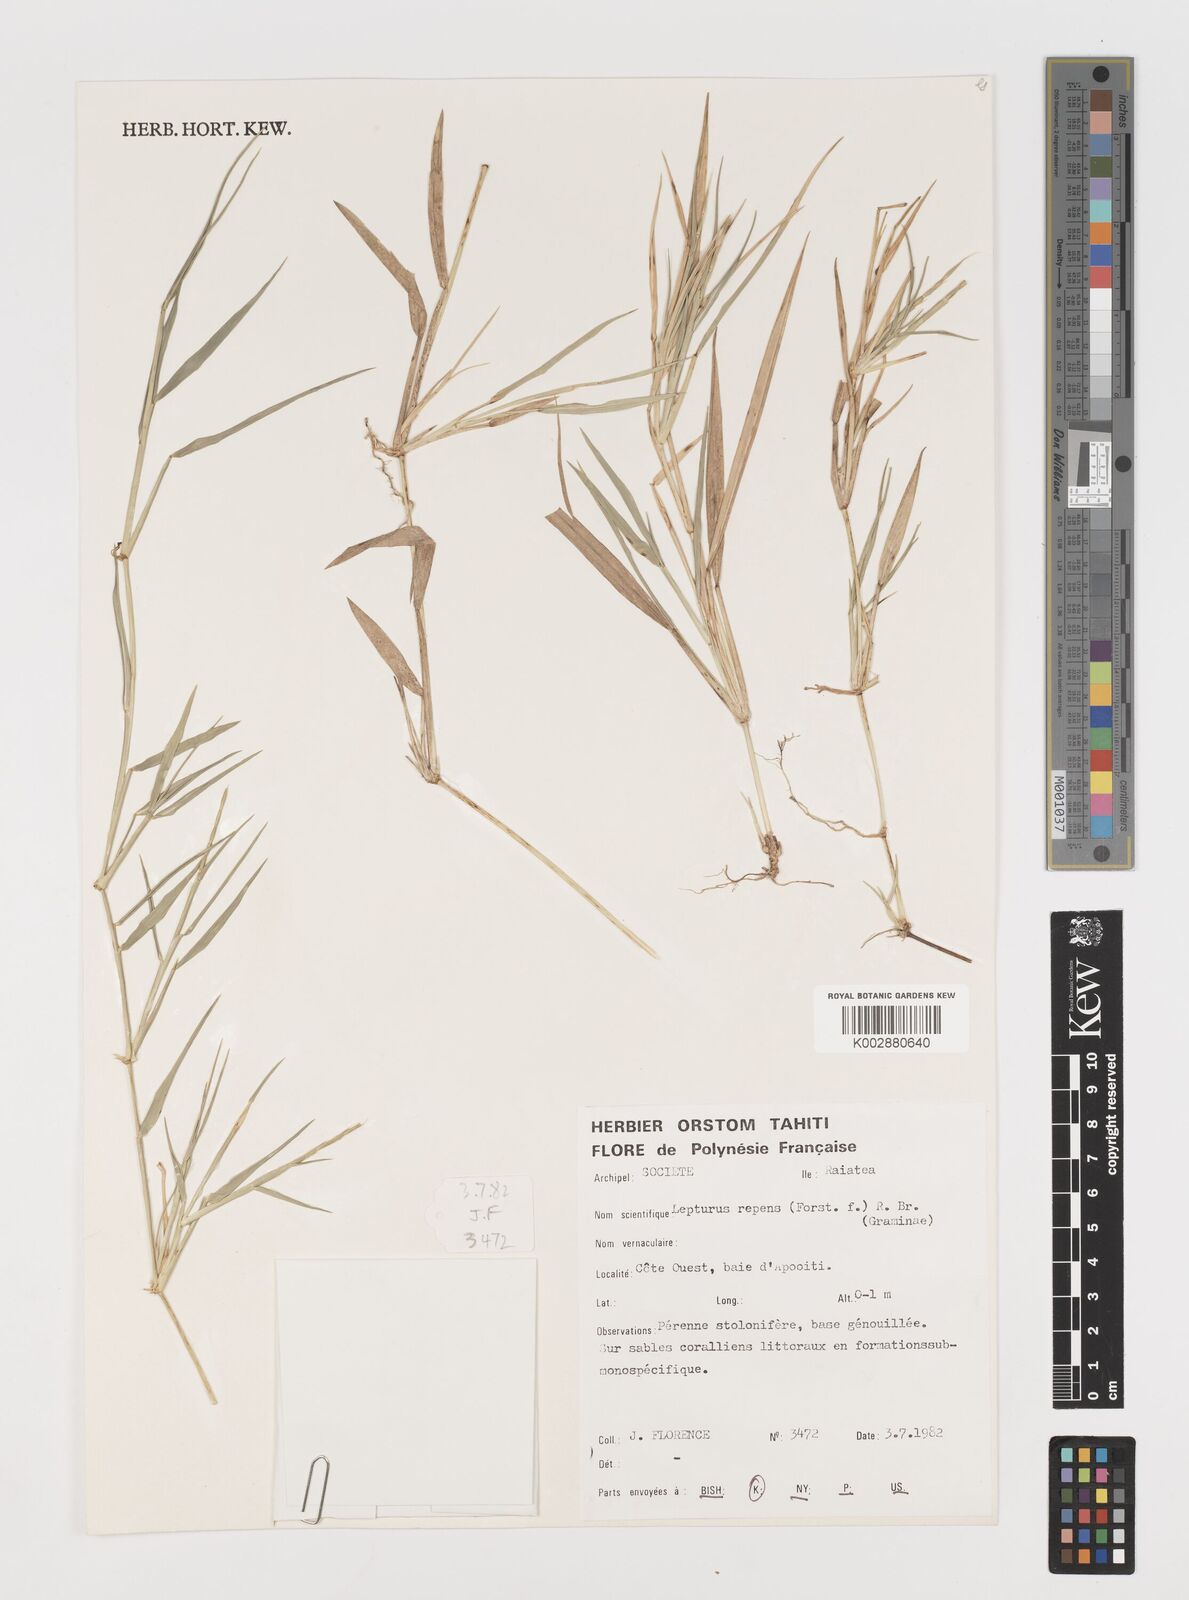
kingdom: Plantae
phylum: Tracheophyta
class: Liliopsida
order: Poales
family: Poaceae
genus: Lepturus
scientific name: Lepturus repens
